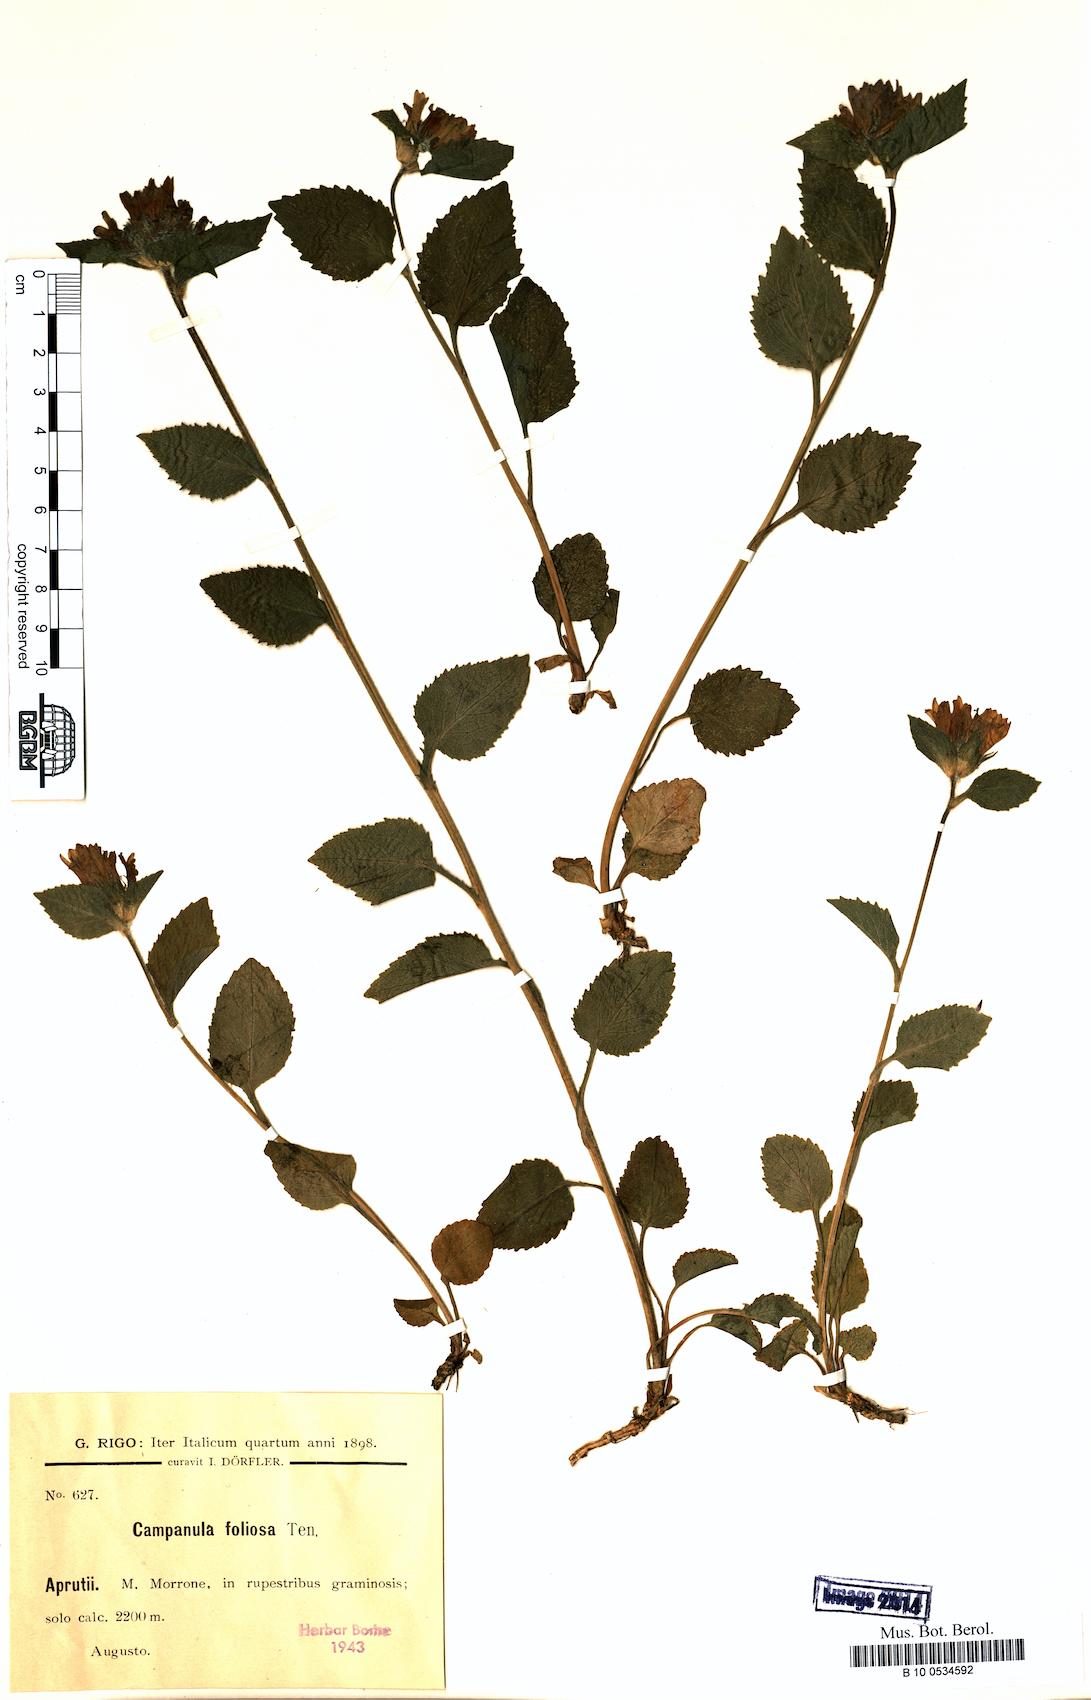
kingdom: Plantae
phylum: Tracheophyta
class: Magnoliopsida
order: Asterales
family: Campanulaceae
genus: Campanula
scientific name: Campanula foliosa
